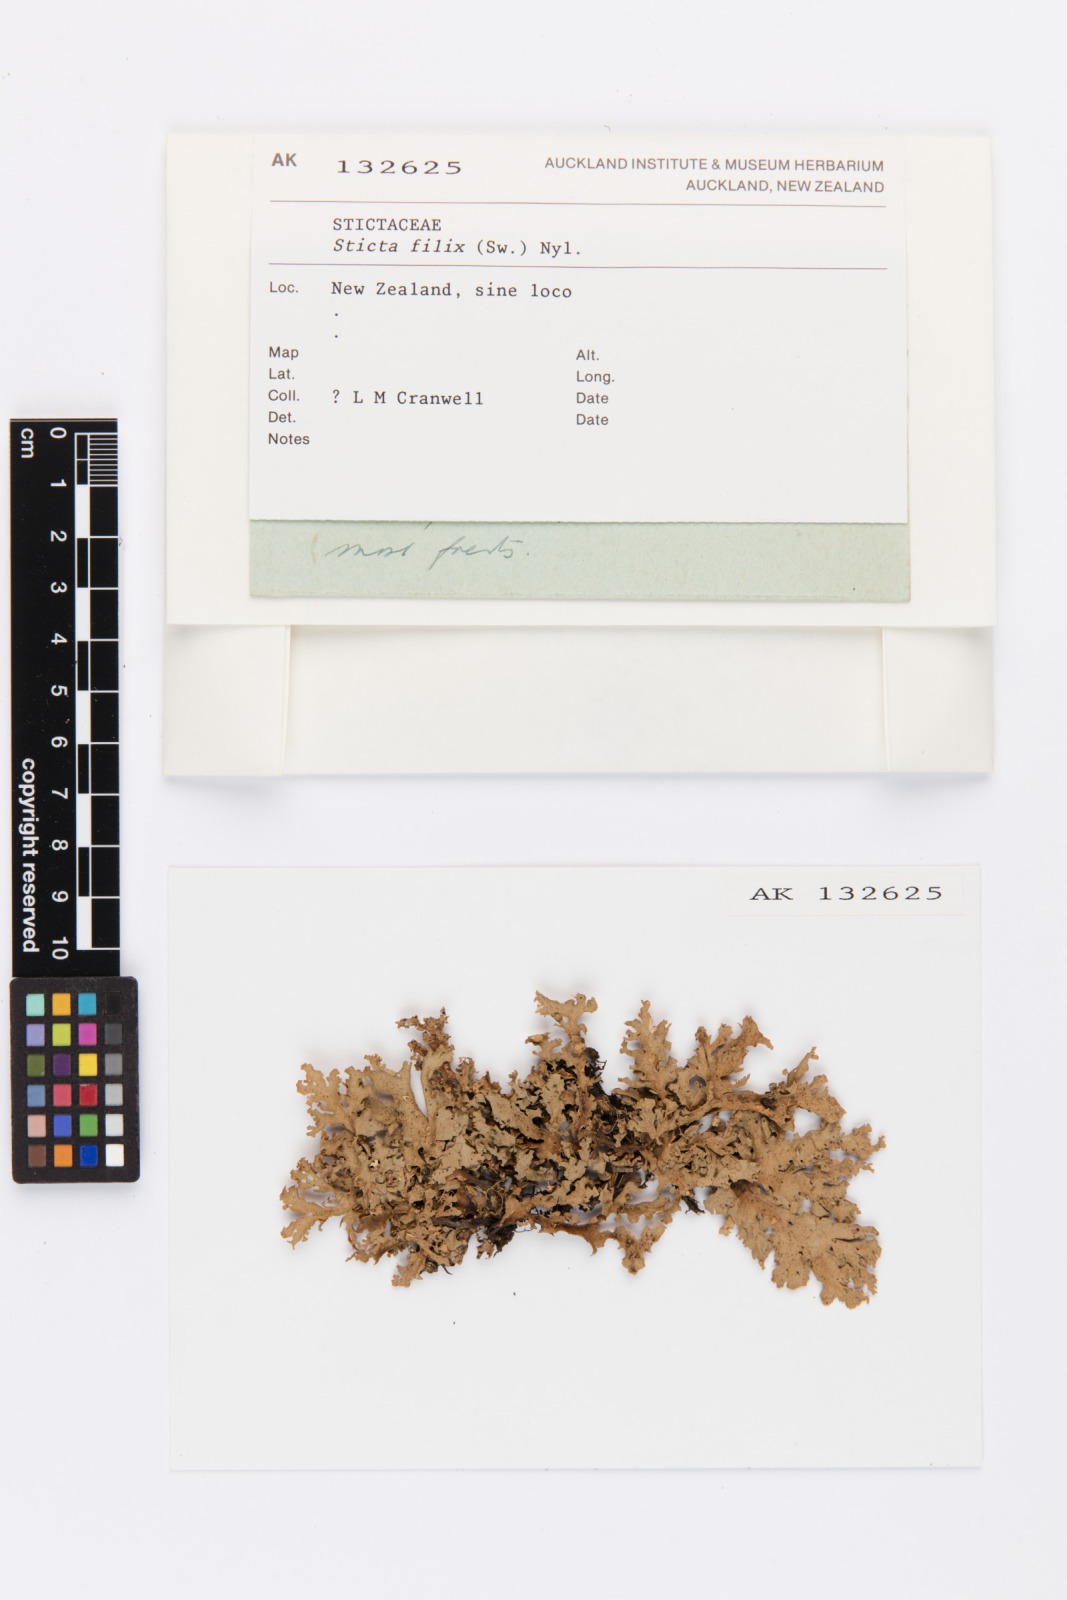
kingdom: Fungi
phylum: Ascomycota
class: Lecanoromycetes
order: Peltigerales
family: Lobariaceae
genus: Sticta
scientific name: Sticta filix
